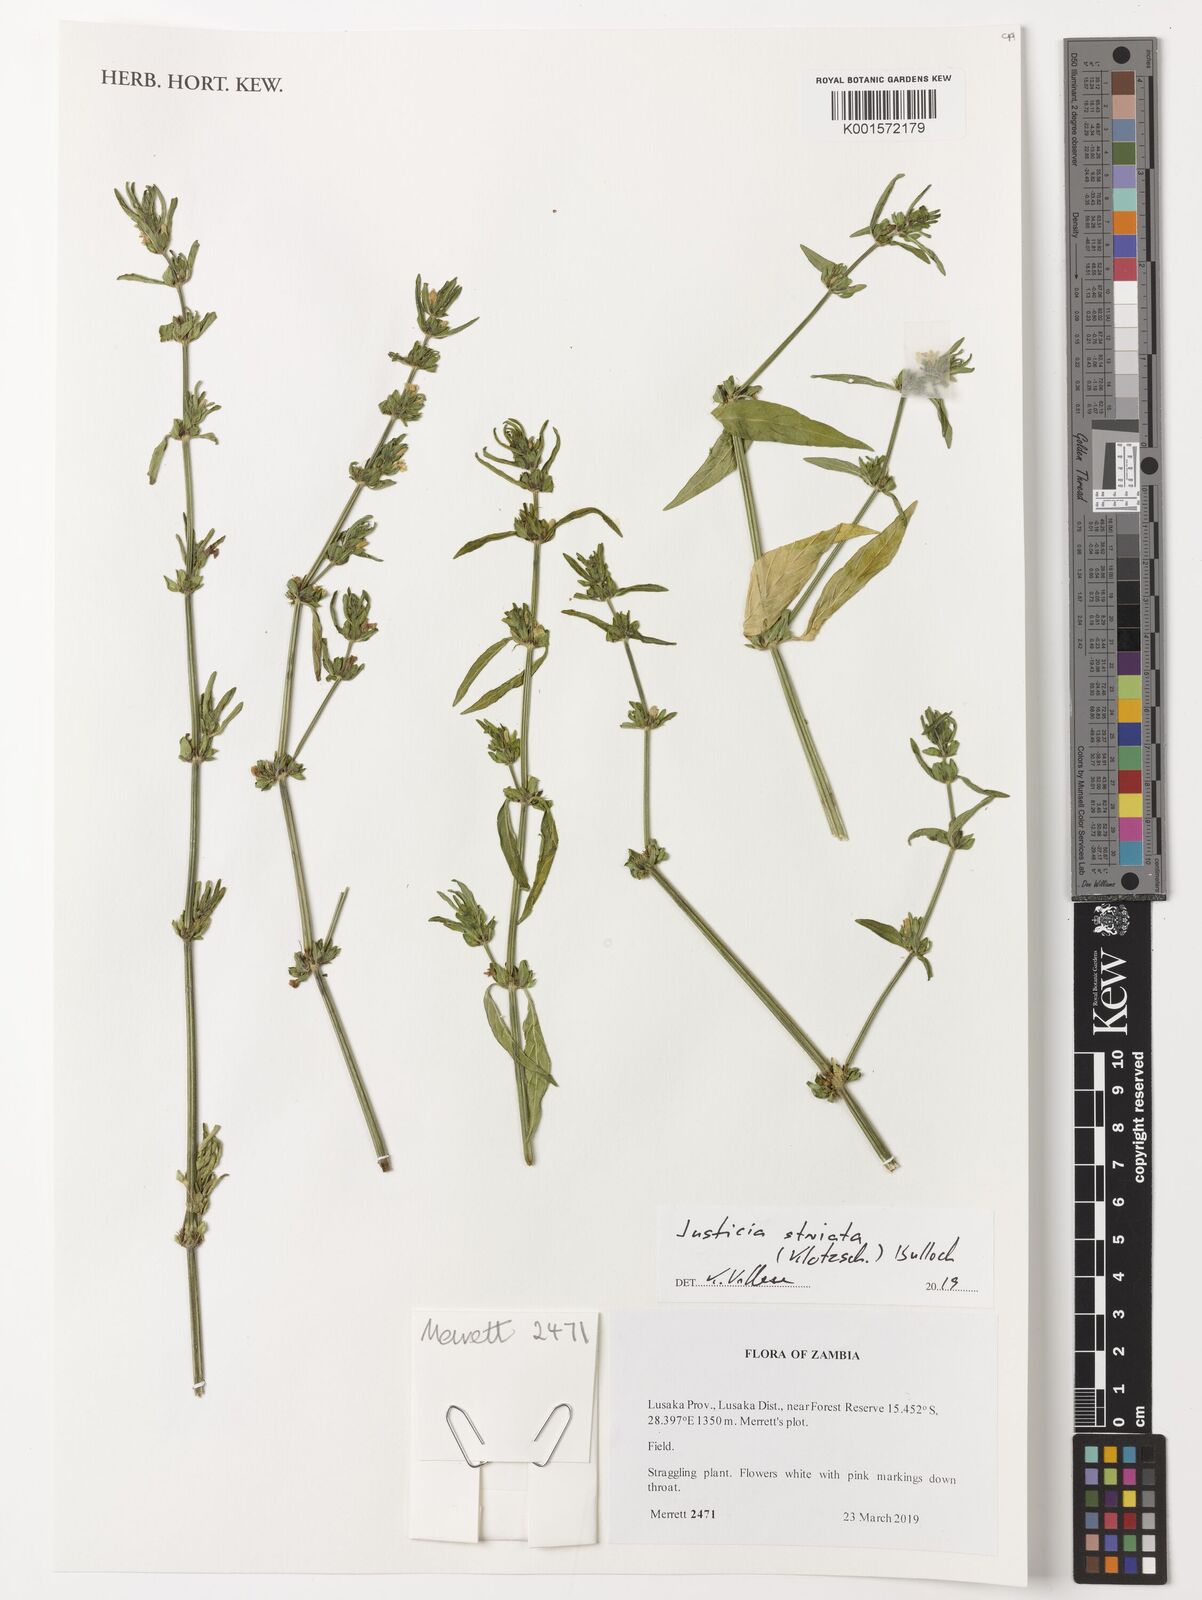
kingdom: Plantae
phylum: Tracheophyta
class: Magnoliopsida
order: Lamiales
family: Acanthaceae
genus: Justicia
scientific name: Justicia striata
